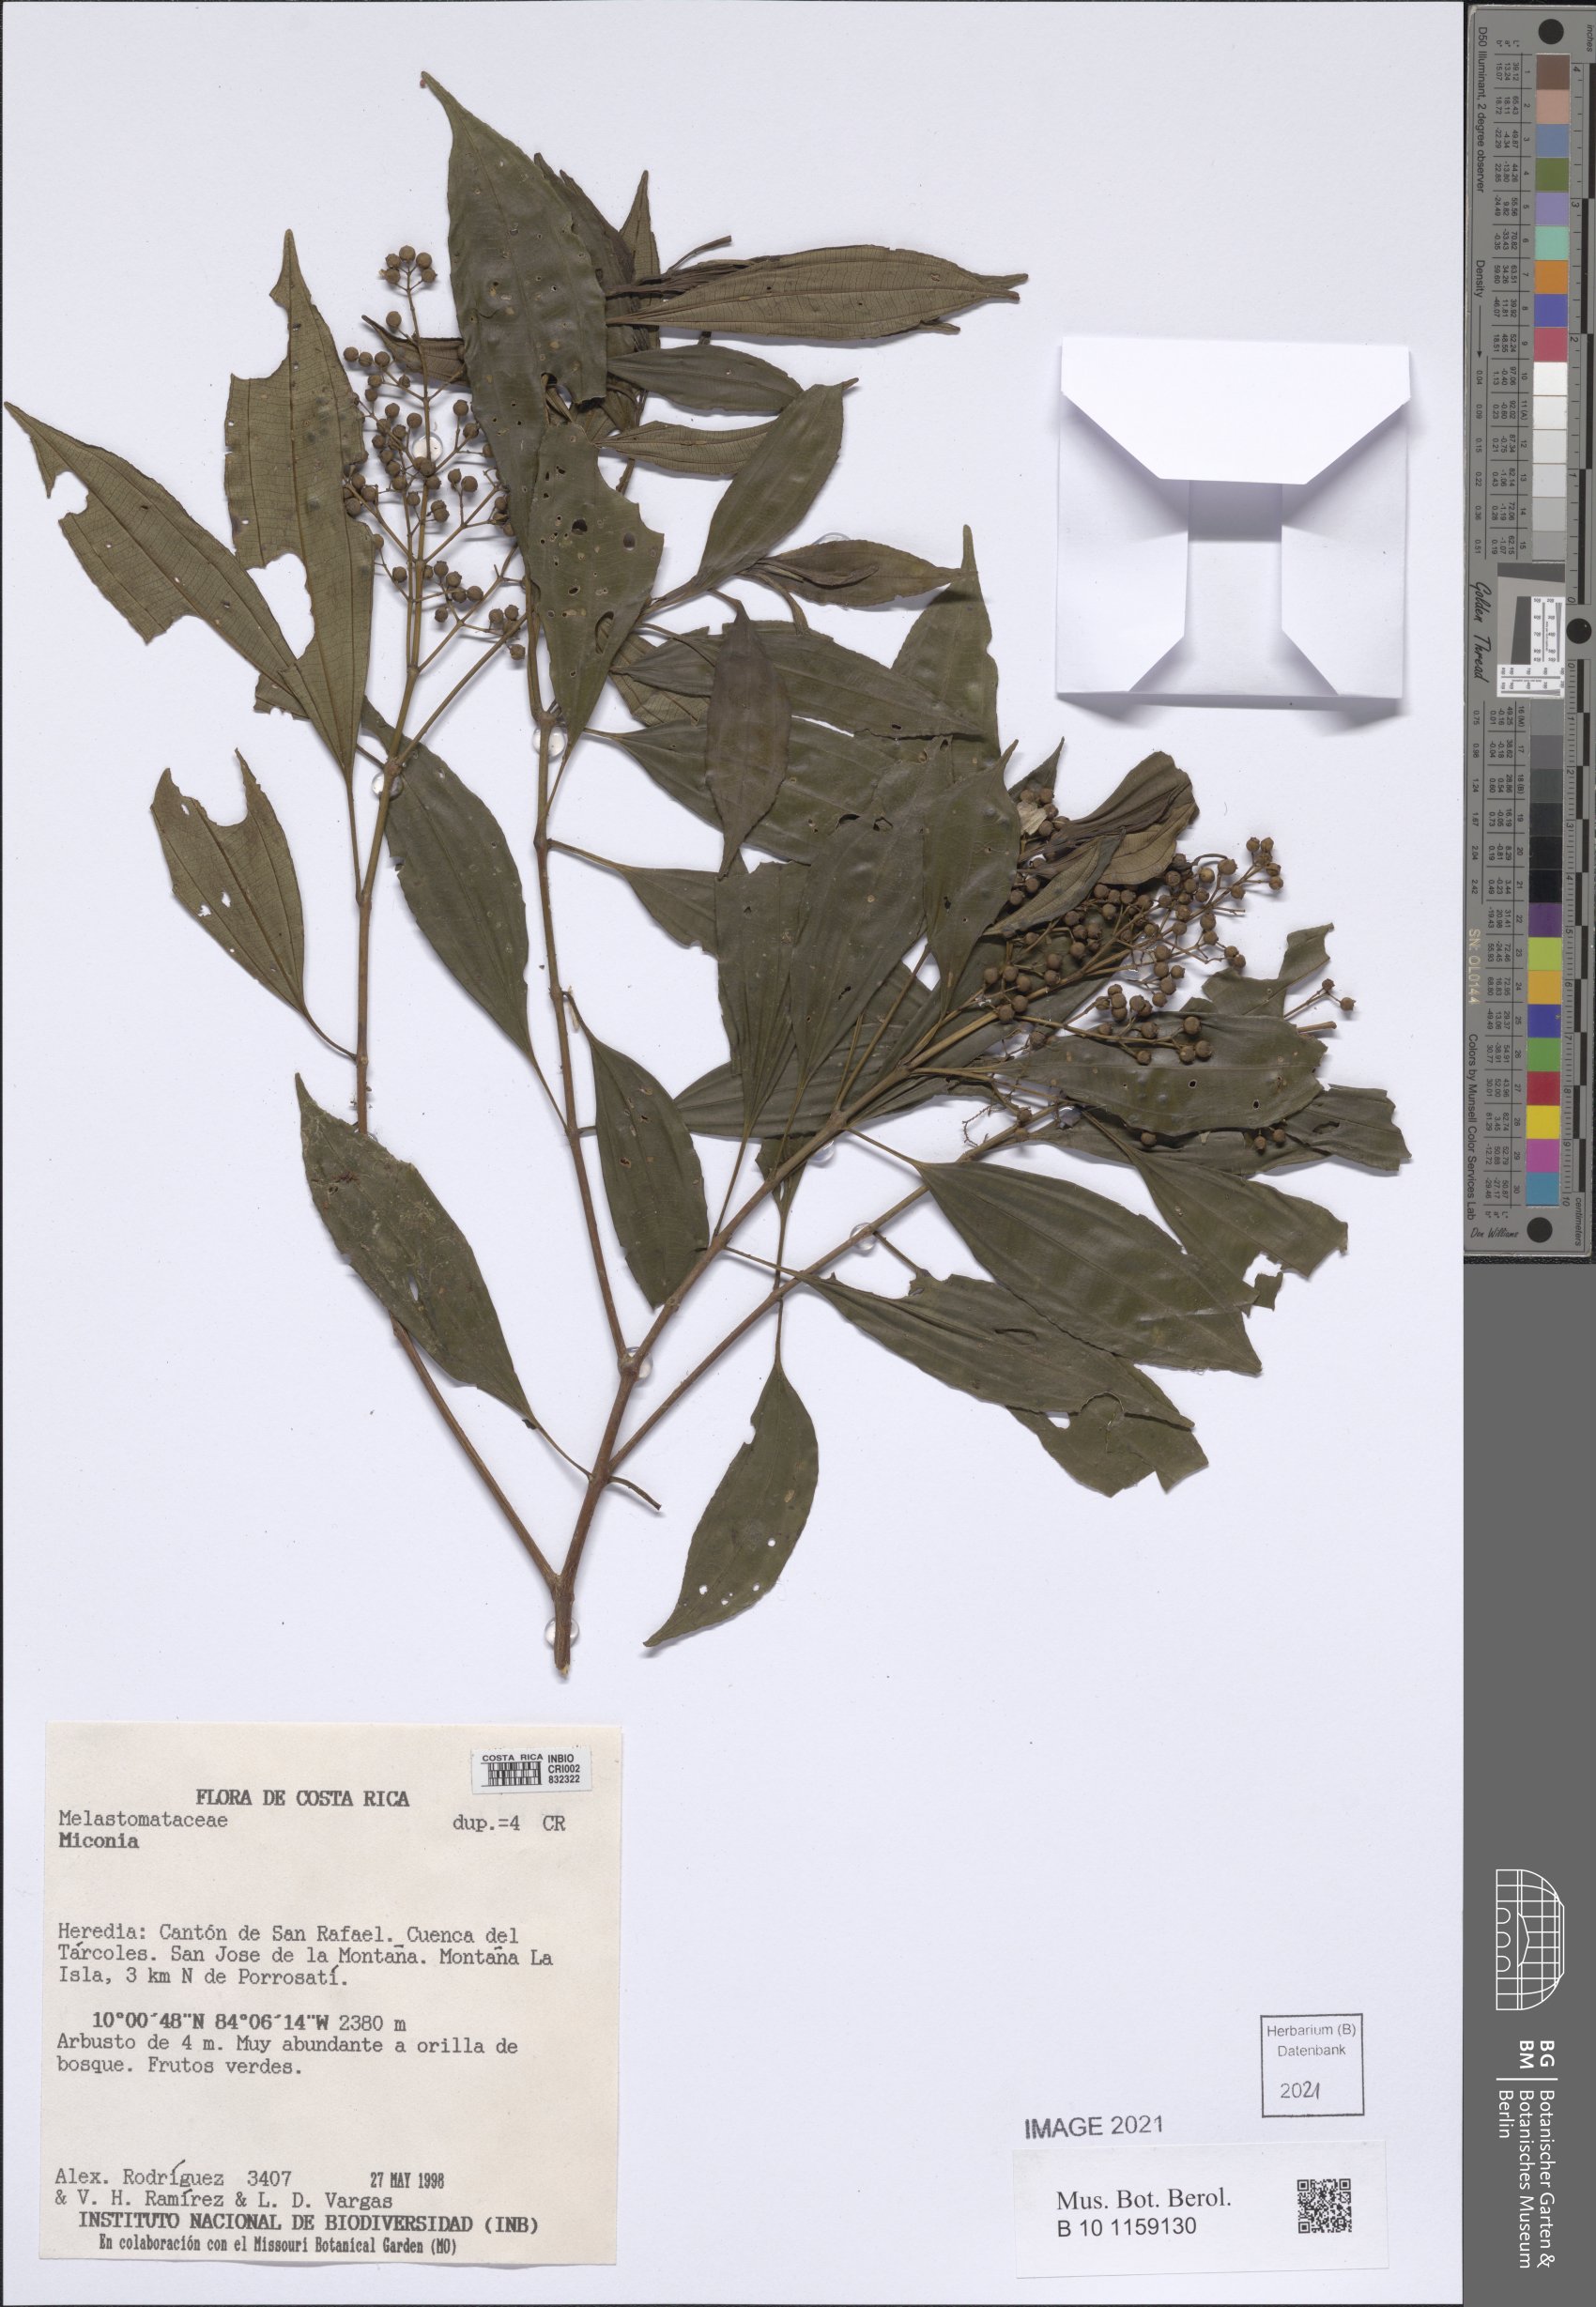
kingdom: Plantae
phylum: Tracheophyta
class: Magnoliopsida
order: Myrtales
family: Melastomataceae
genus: Miconia
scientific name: Miconia
